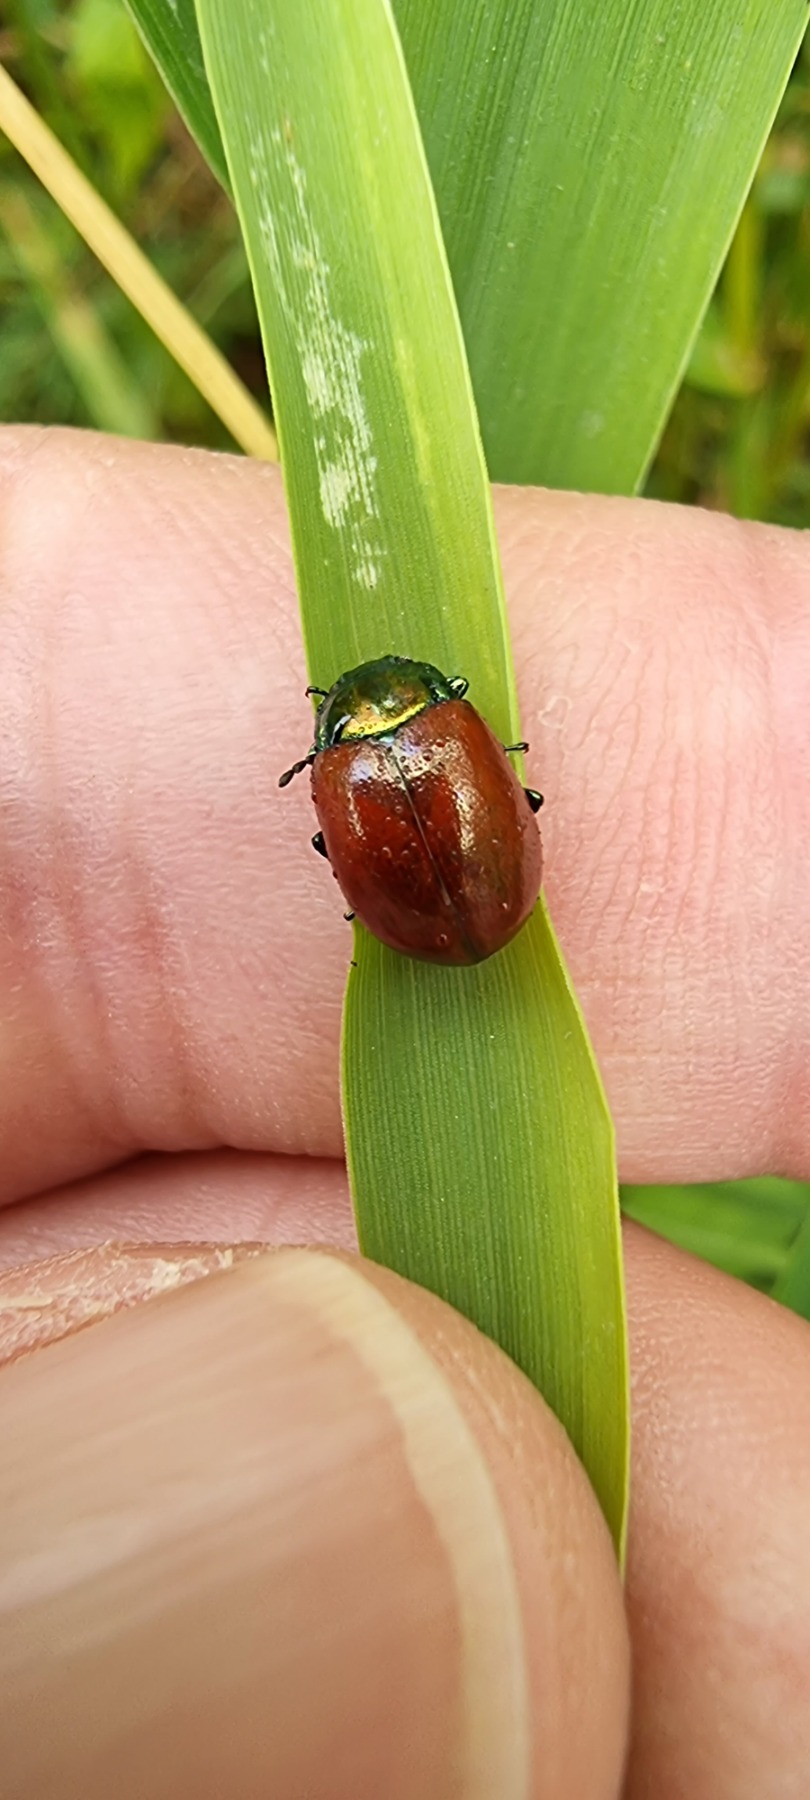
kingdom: Animalia
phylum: Arthropoda
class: Insecta
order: Coleoptera
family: Chrysomelidae
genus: Chrysomela
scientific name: Chrysomela polita
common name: Forskelligfarvet guldbille
